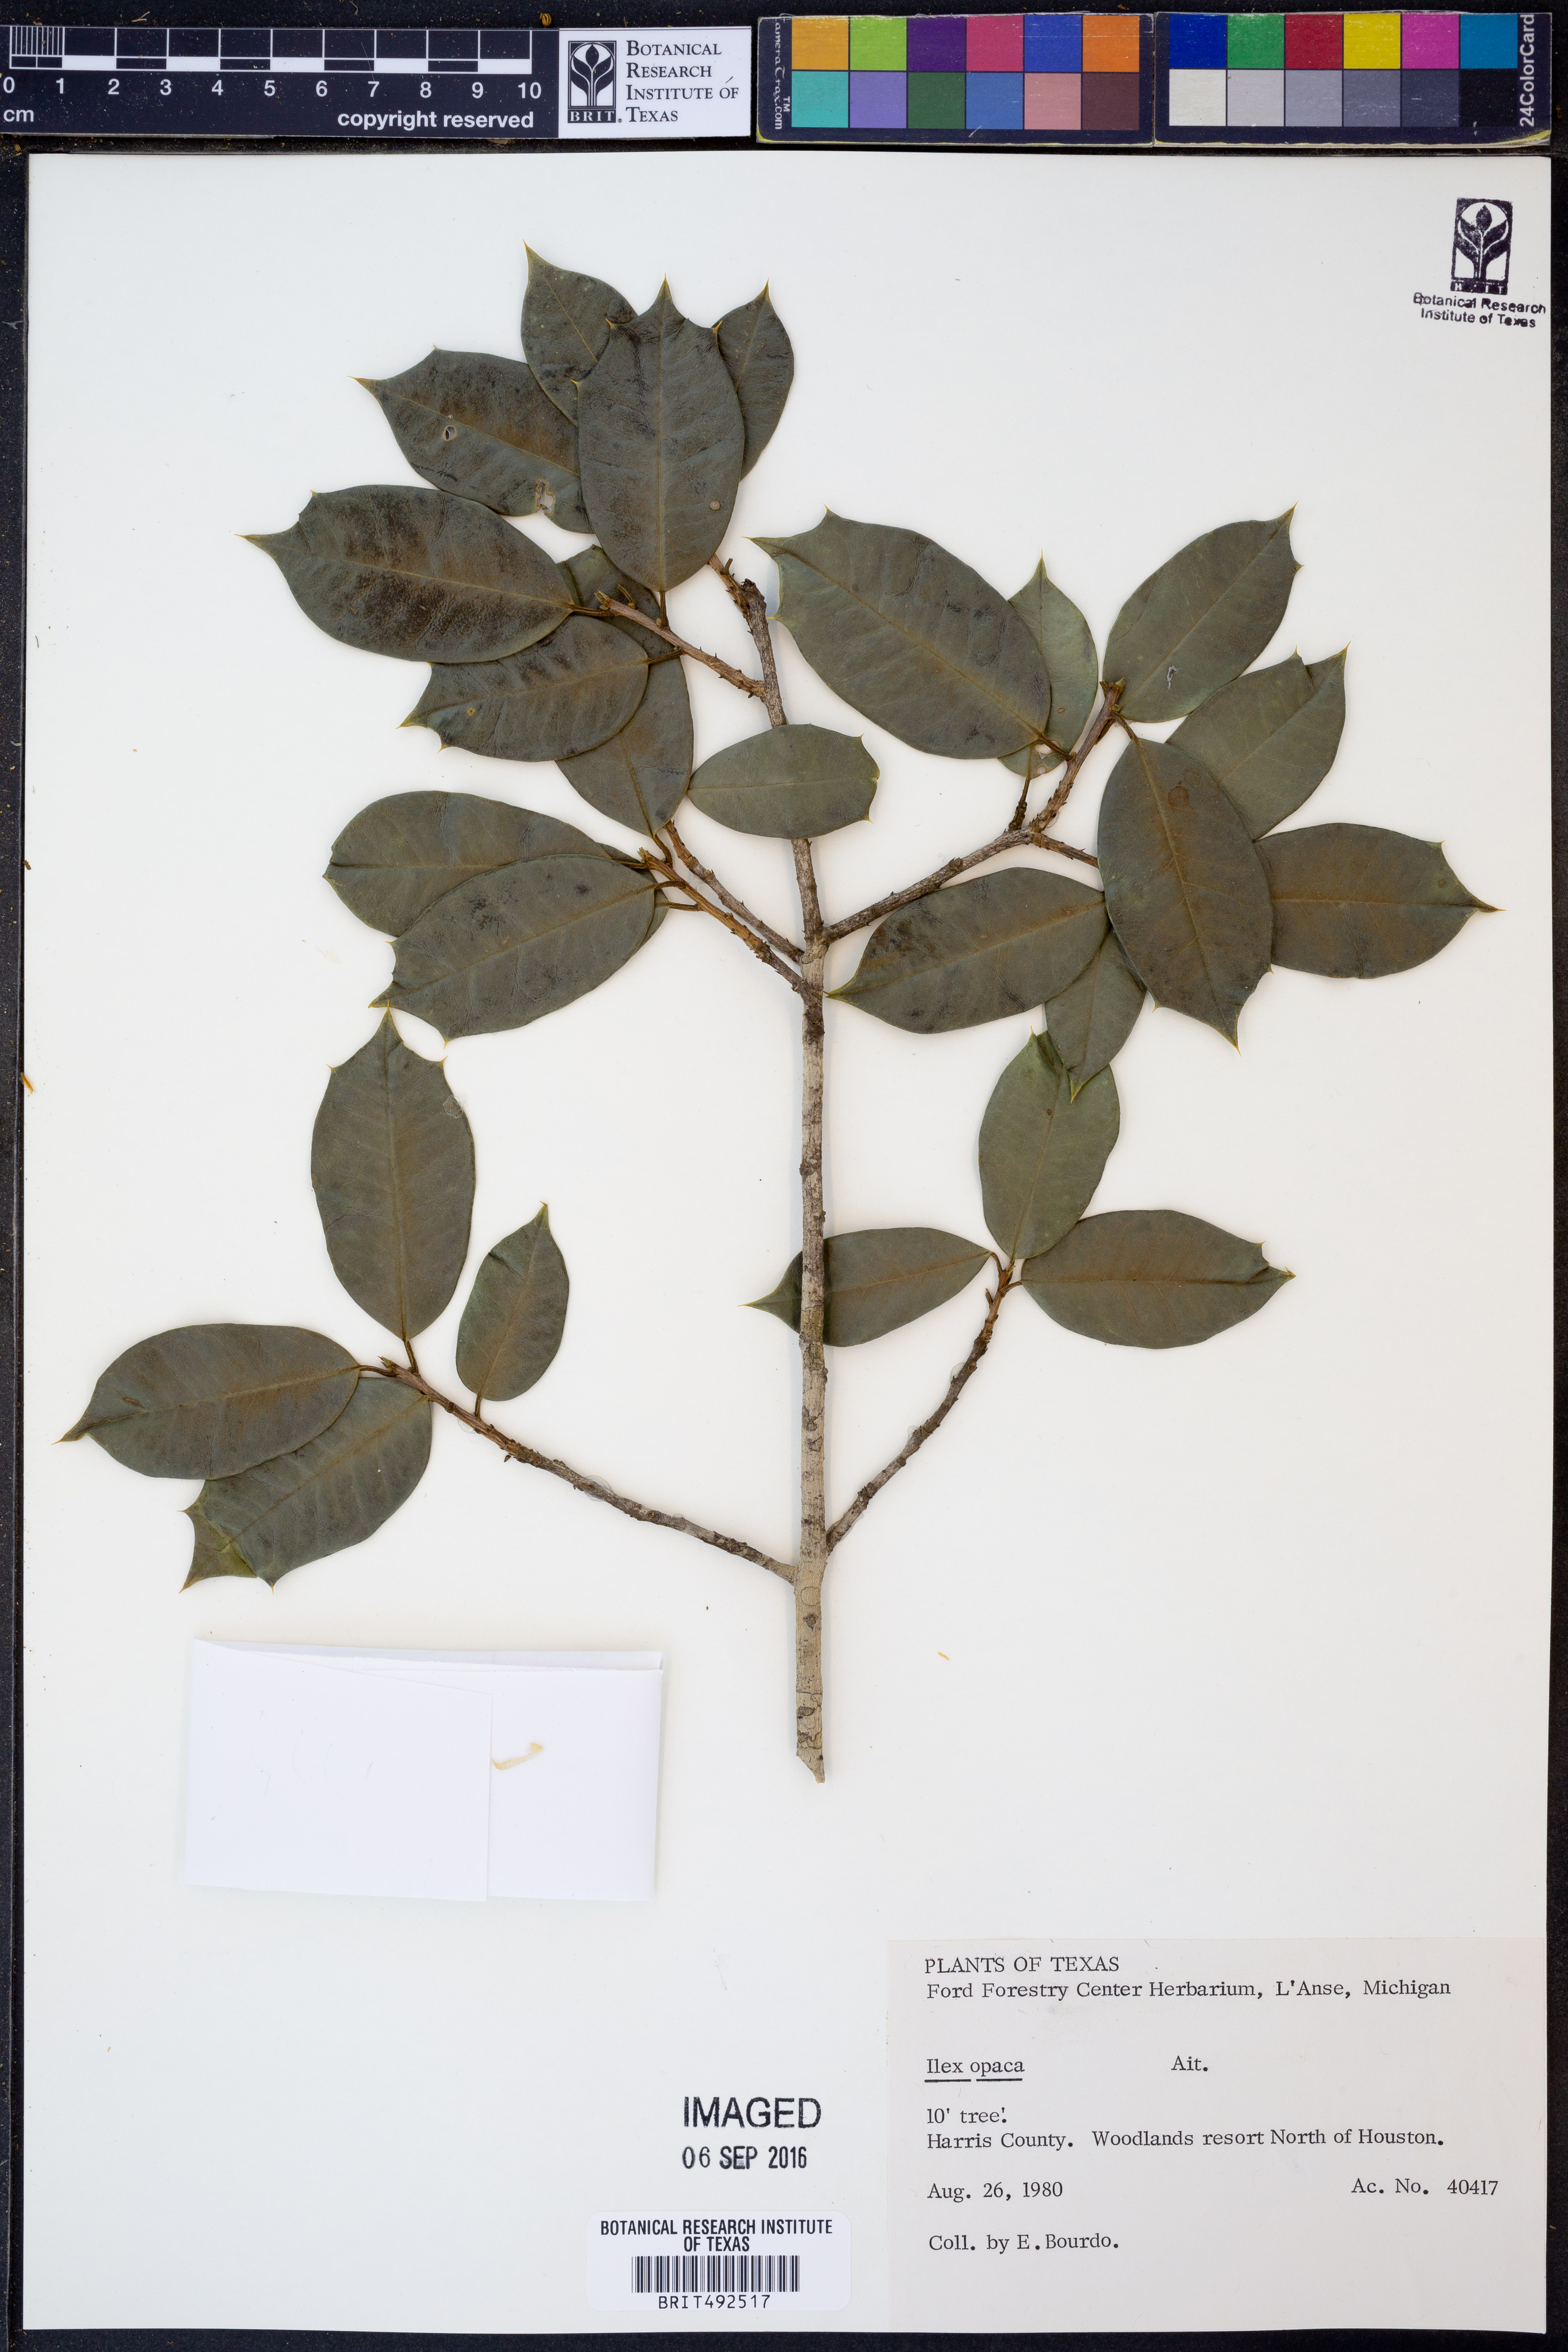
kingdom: Plantae
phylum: Tracheophyta
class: Magnoliopsida
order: Aquifoliales
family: Aquifoliaceae
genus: Ilex
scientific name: Ilex opaca
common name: American holly
